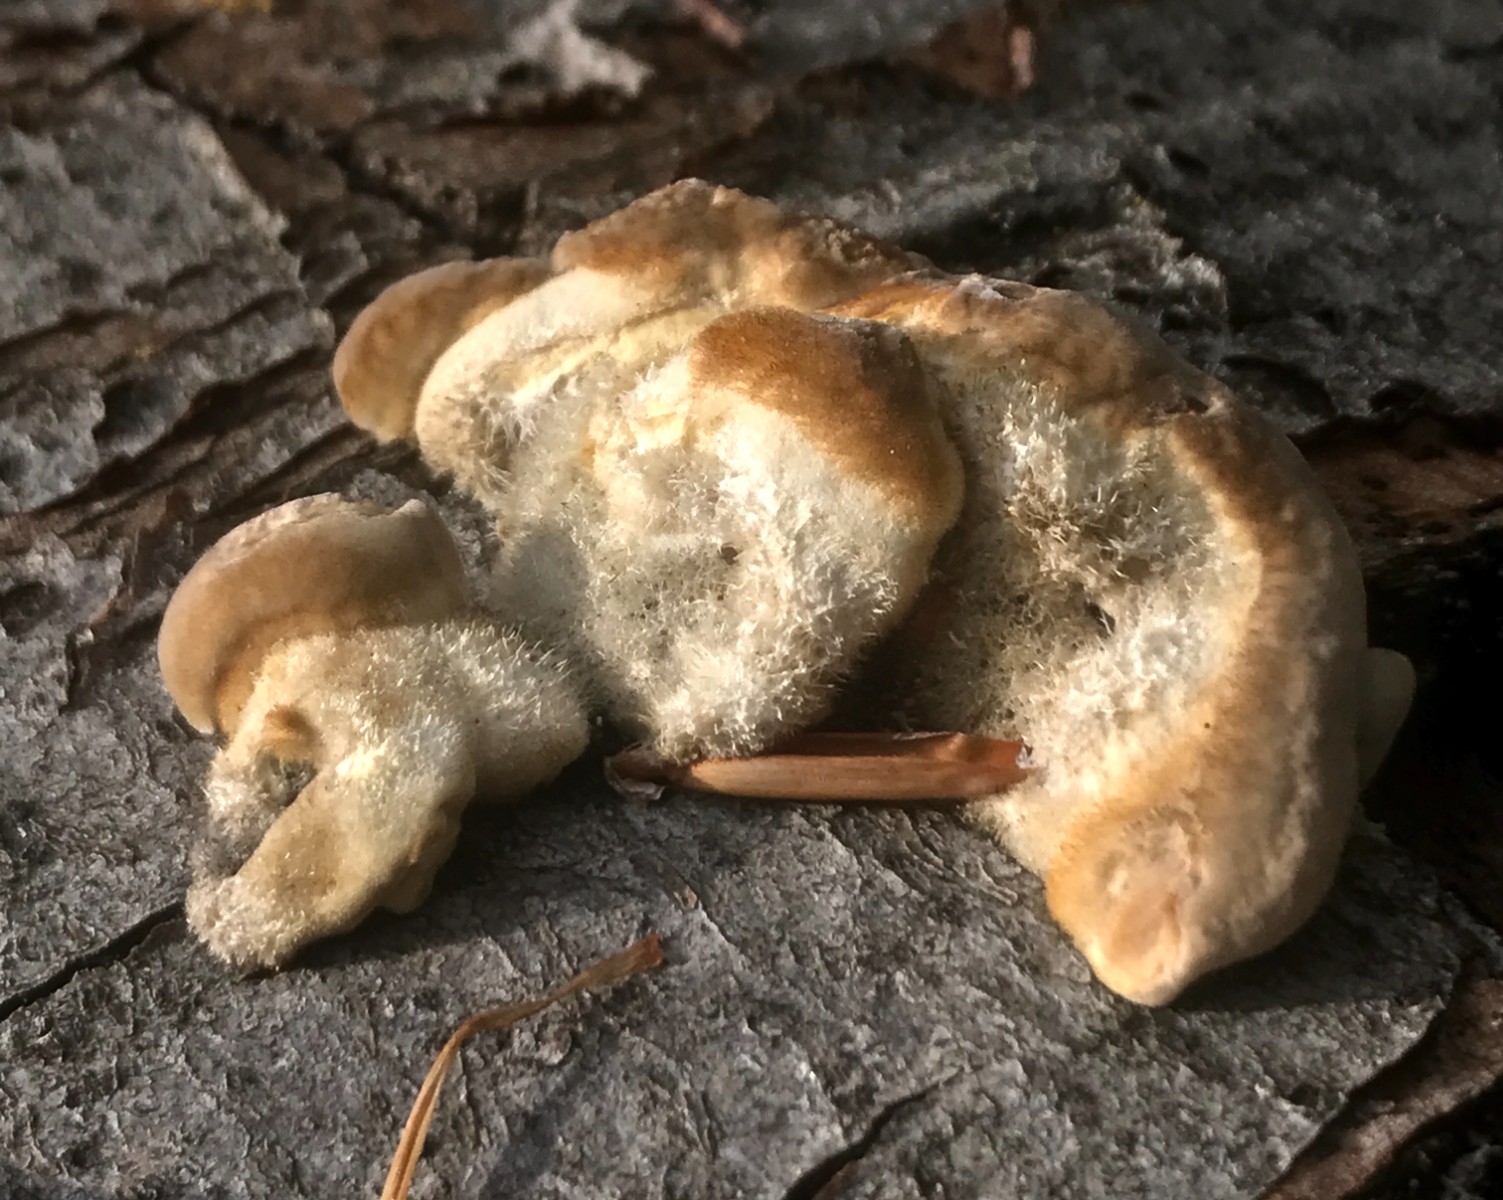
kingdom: Fungi
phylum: Basidiomycota
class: Agaricomycetes
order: Polyporales
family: Polyporaceae
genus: Trametes
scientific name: Trametes hirsuta
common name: håret læderporesvamp
